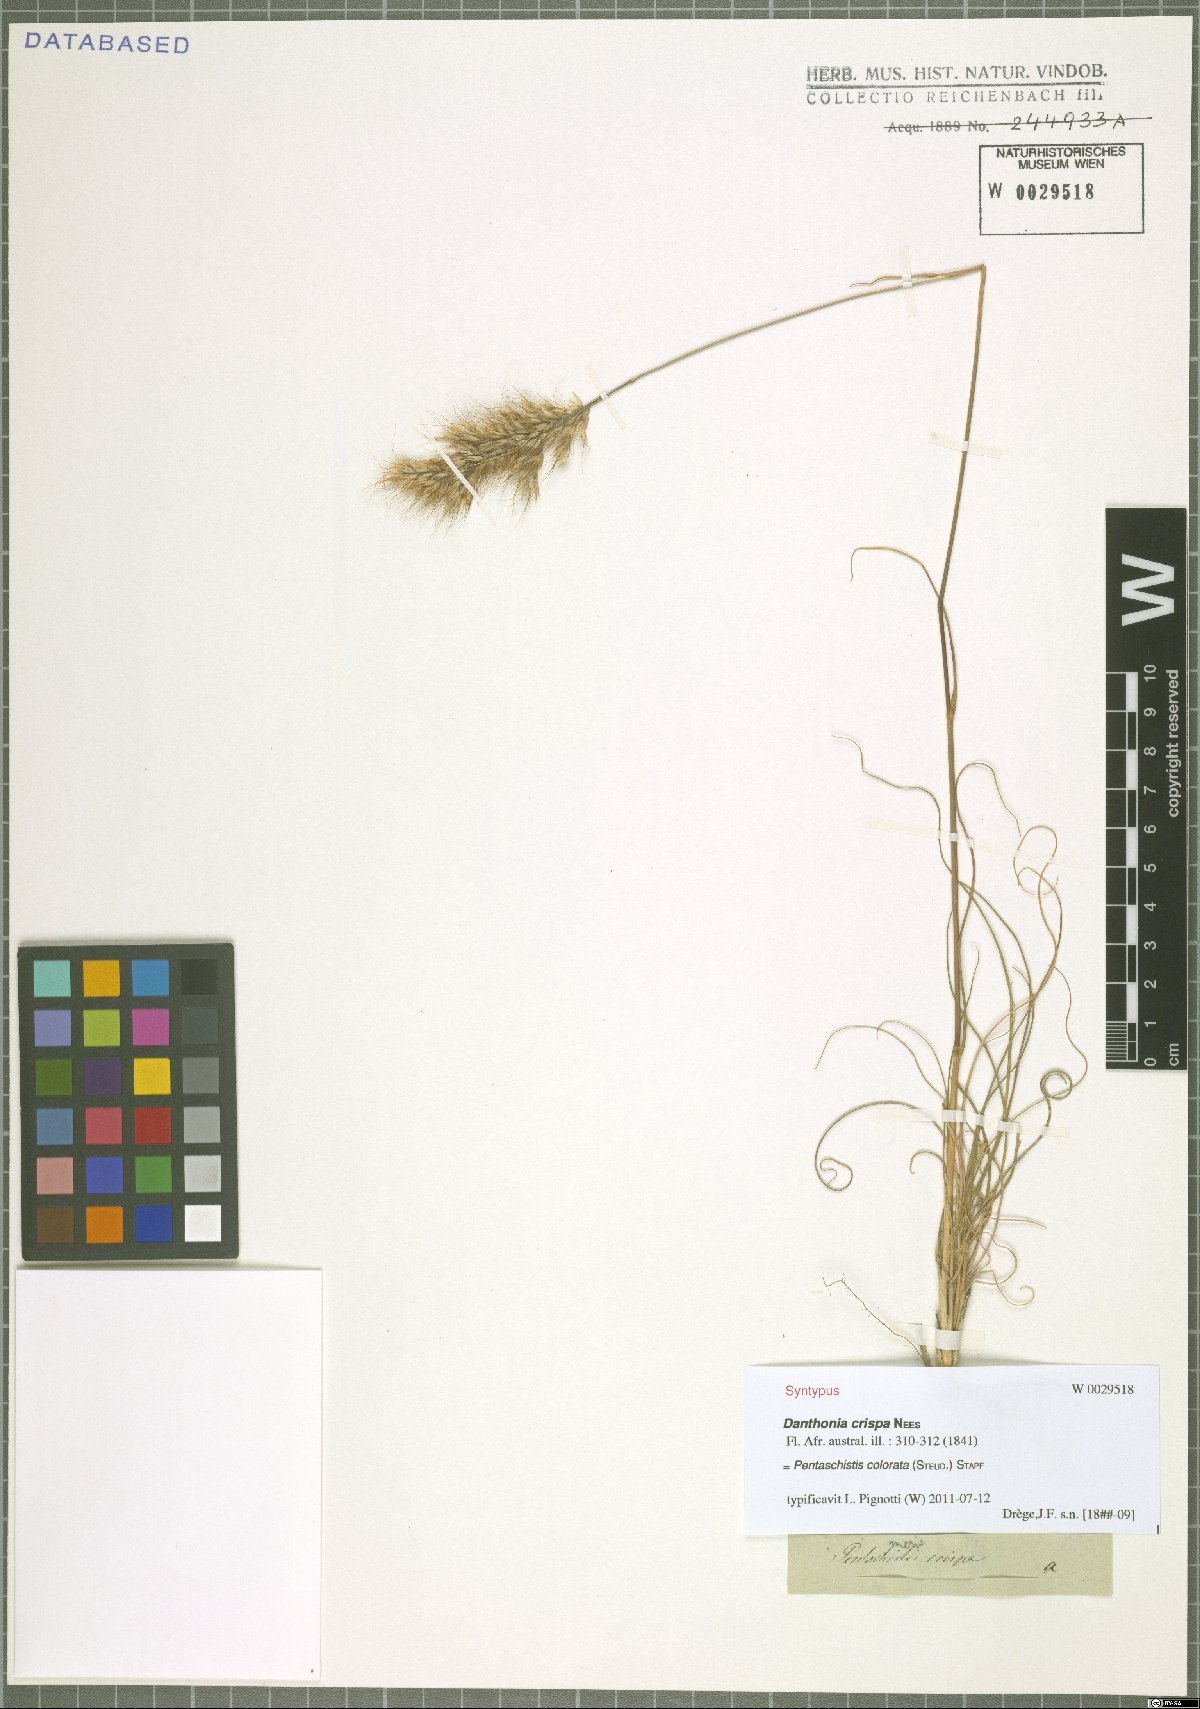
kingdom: Plantae
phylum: Tracheophyta
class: Liliopsida
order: Poales
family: Poaceae
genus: Pentameris
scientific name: Pentameris colorata
